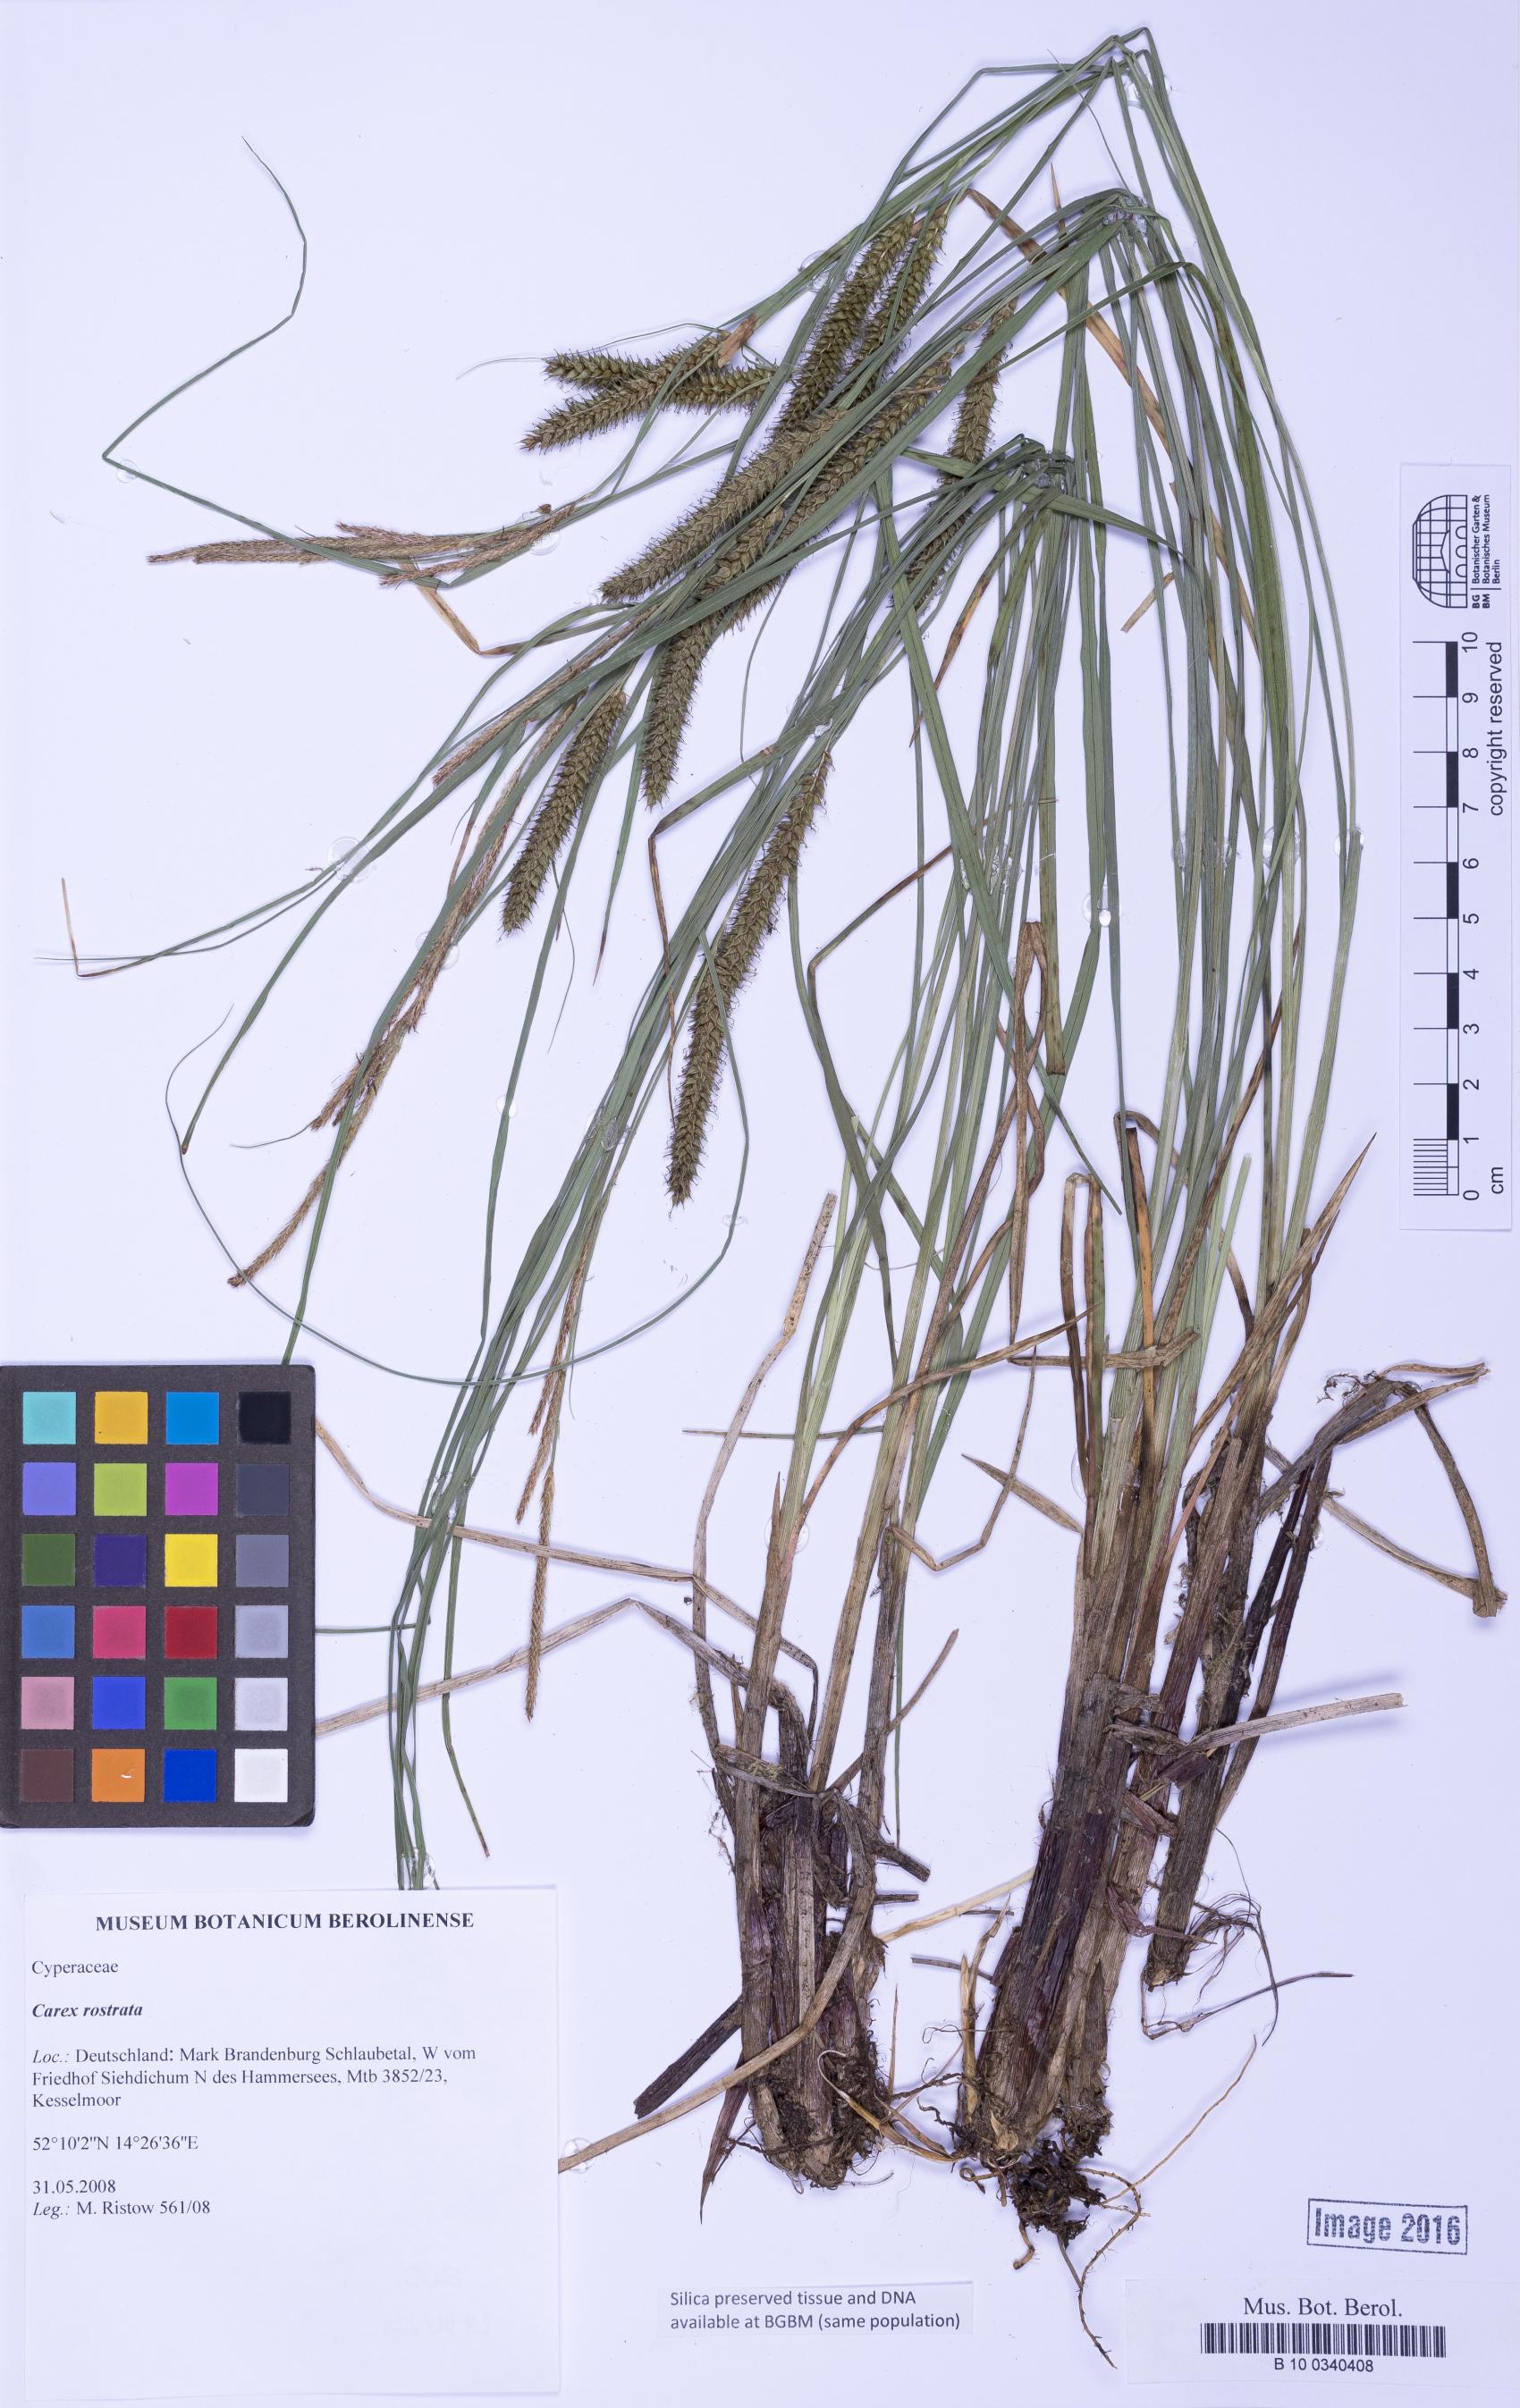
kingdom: Plantae
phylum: Tracheophyta
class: Liliopsida
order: Poales
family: Cyperaceae
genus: Carex
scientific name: Carex rostrata
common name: Bottle sedge
